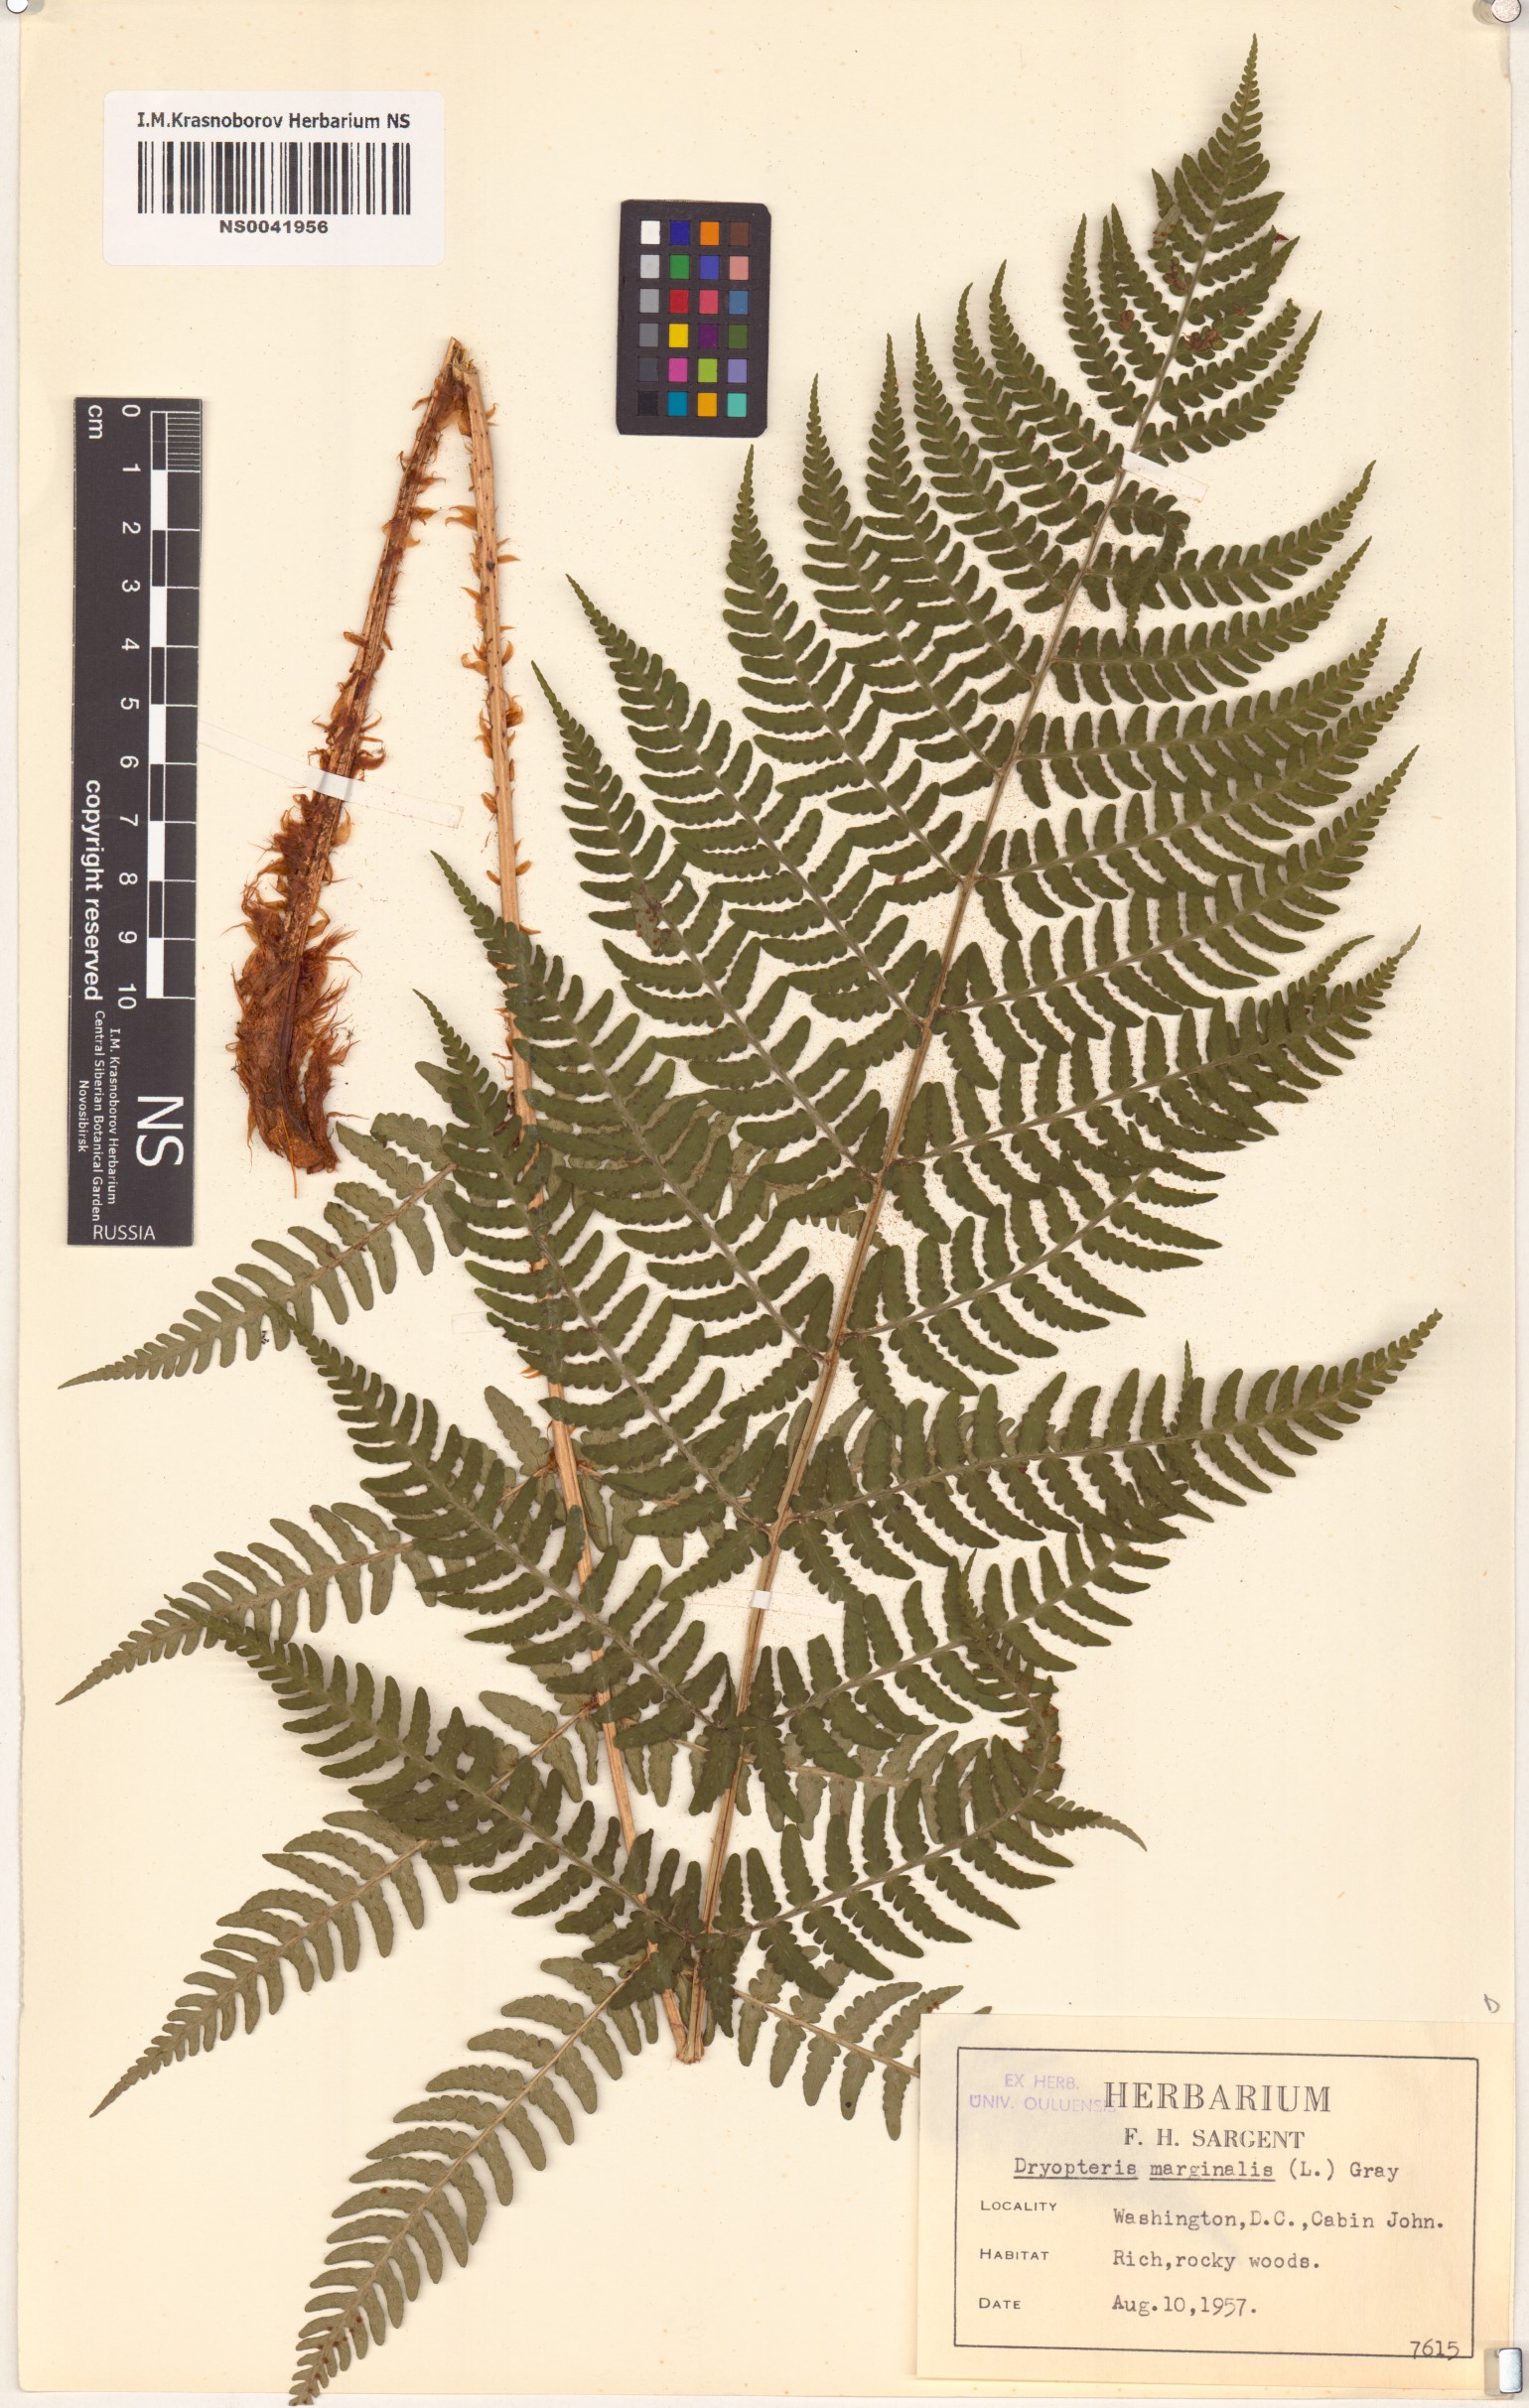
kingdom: Plantae
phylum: Tracheophyta
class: Polypodiopsida
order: Polypodiales
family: Dryopteridaceae
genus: Dryopteris
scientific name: Dryopteris marginalis
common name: Marginal wood fern
